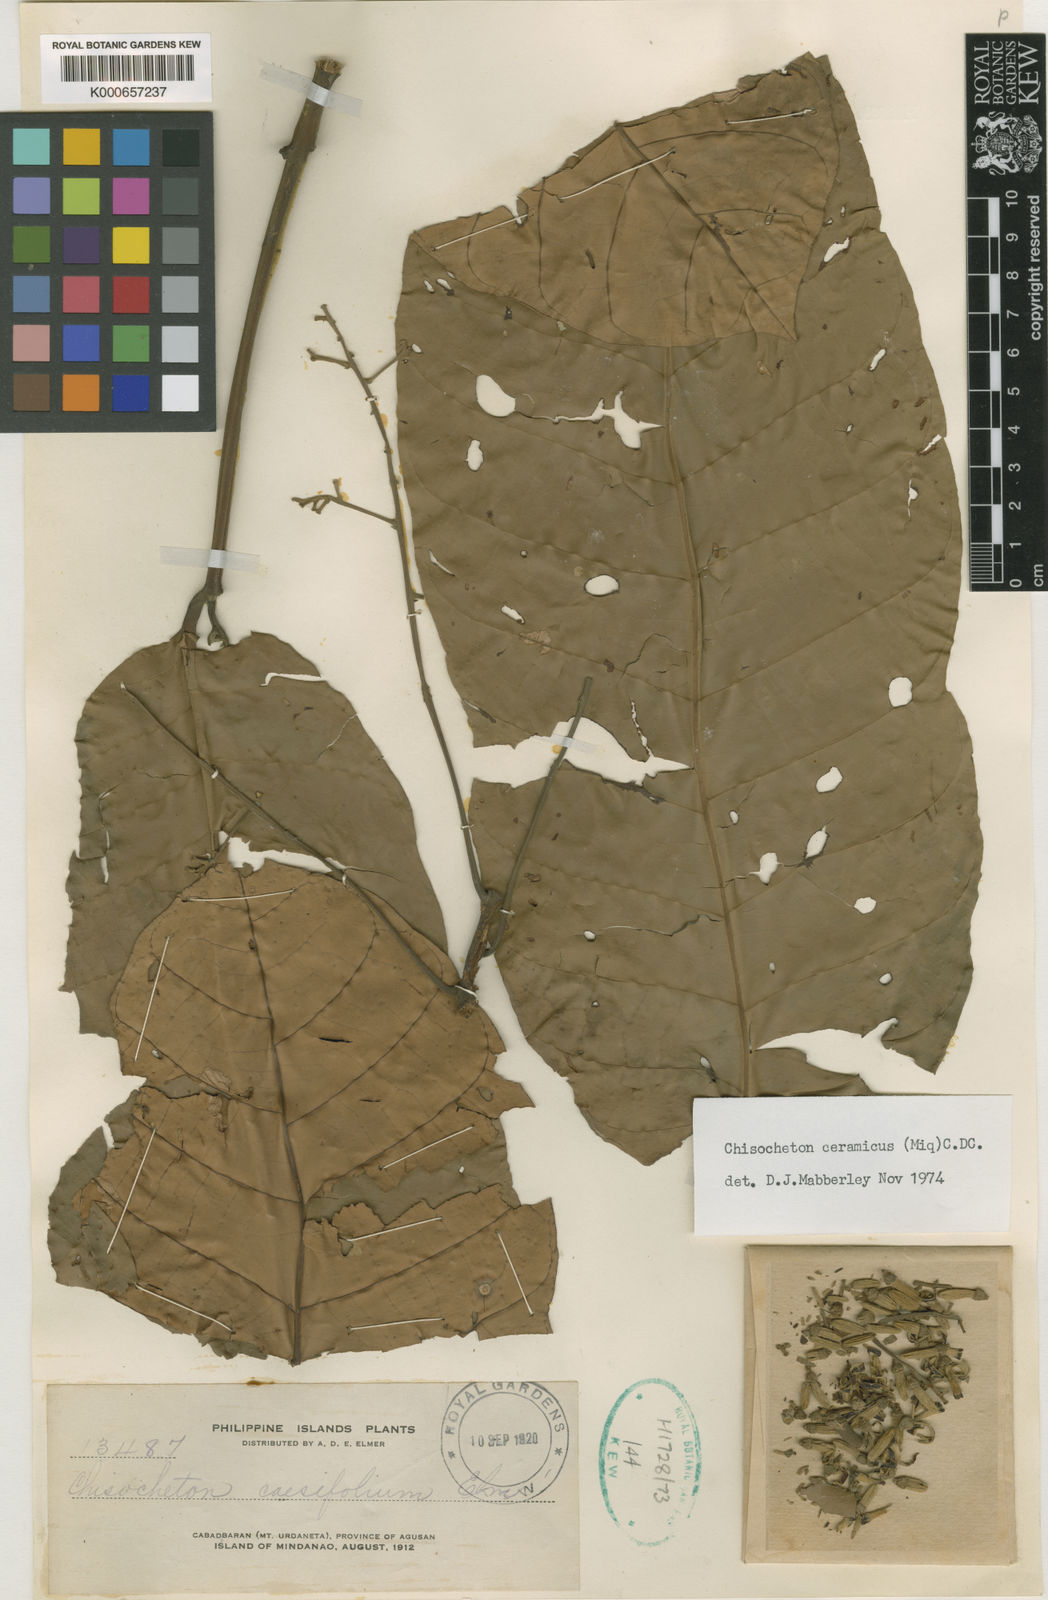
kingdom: Plantae
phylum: Tracheophyta
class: Magnoliopsida
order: Sapindales
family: Meliaceae
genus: Chisocheton
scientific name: Chisocheton ceramicus
